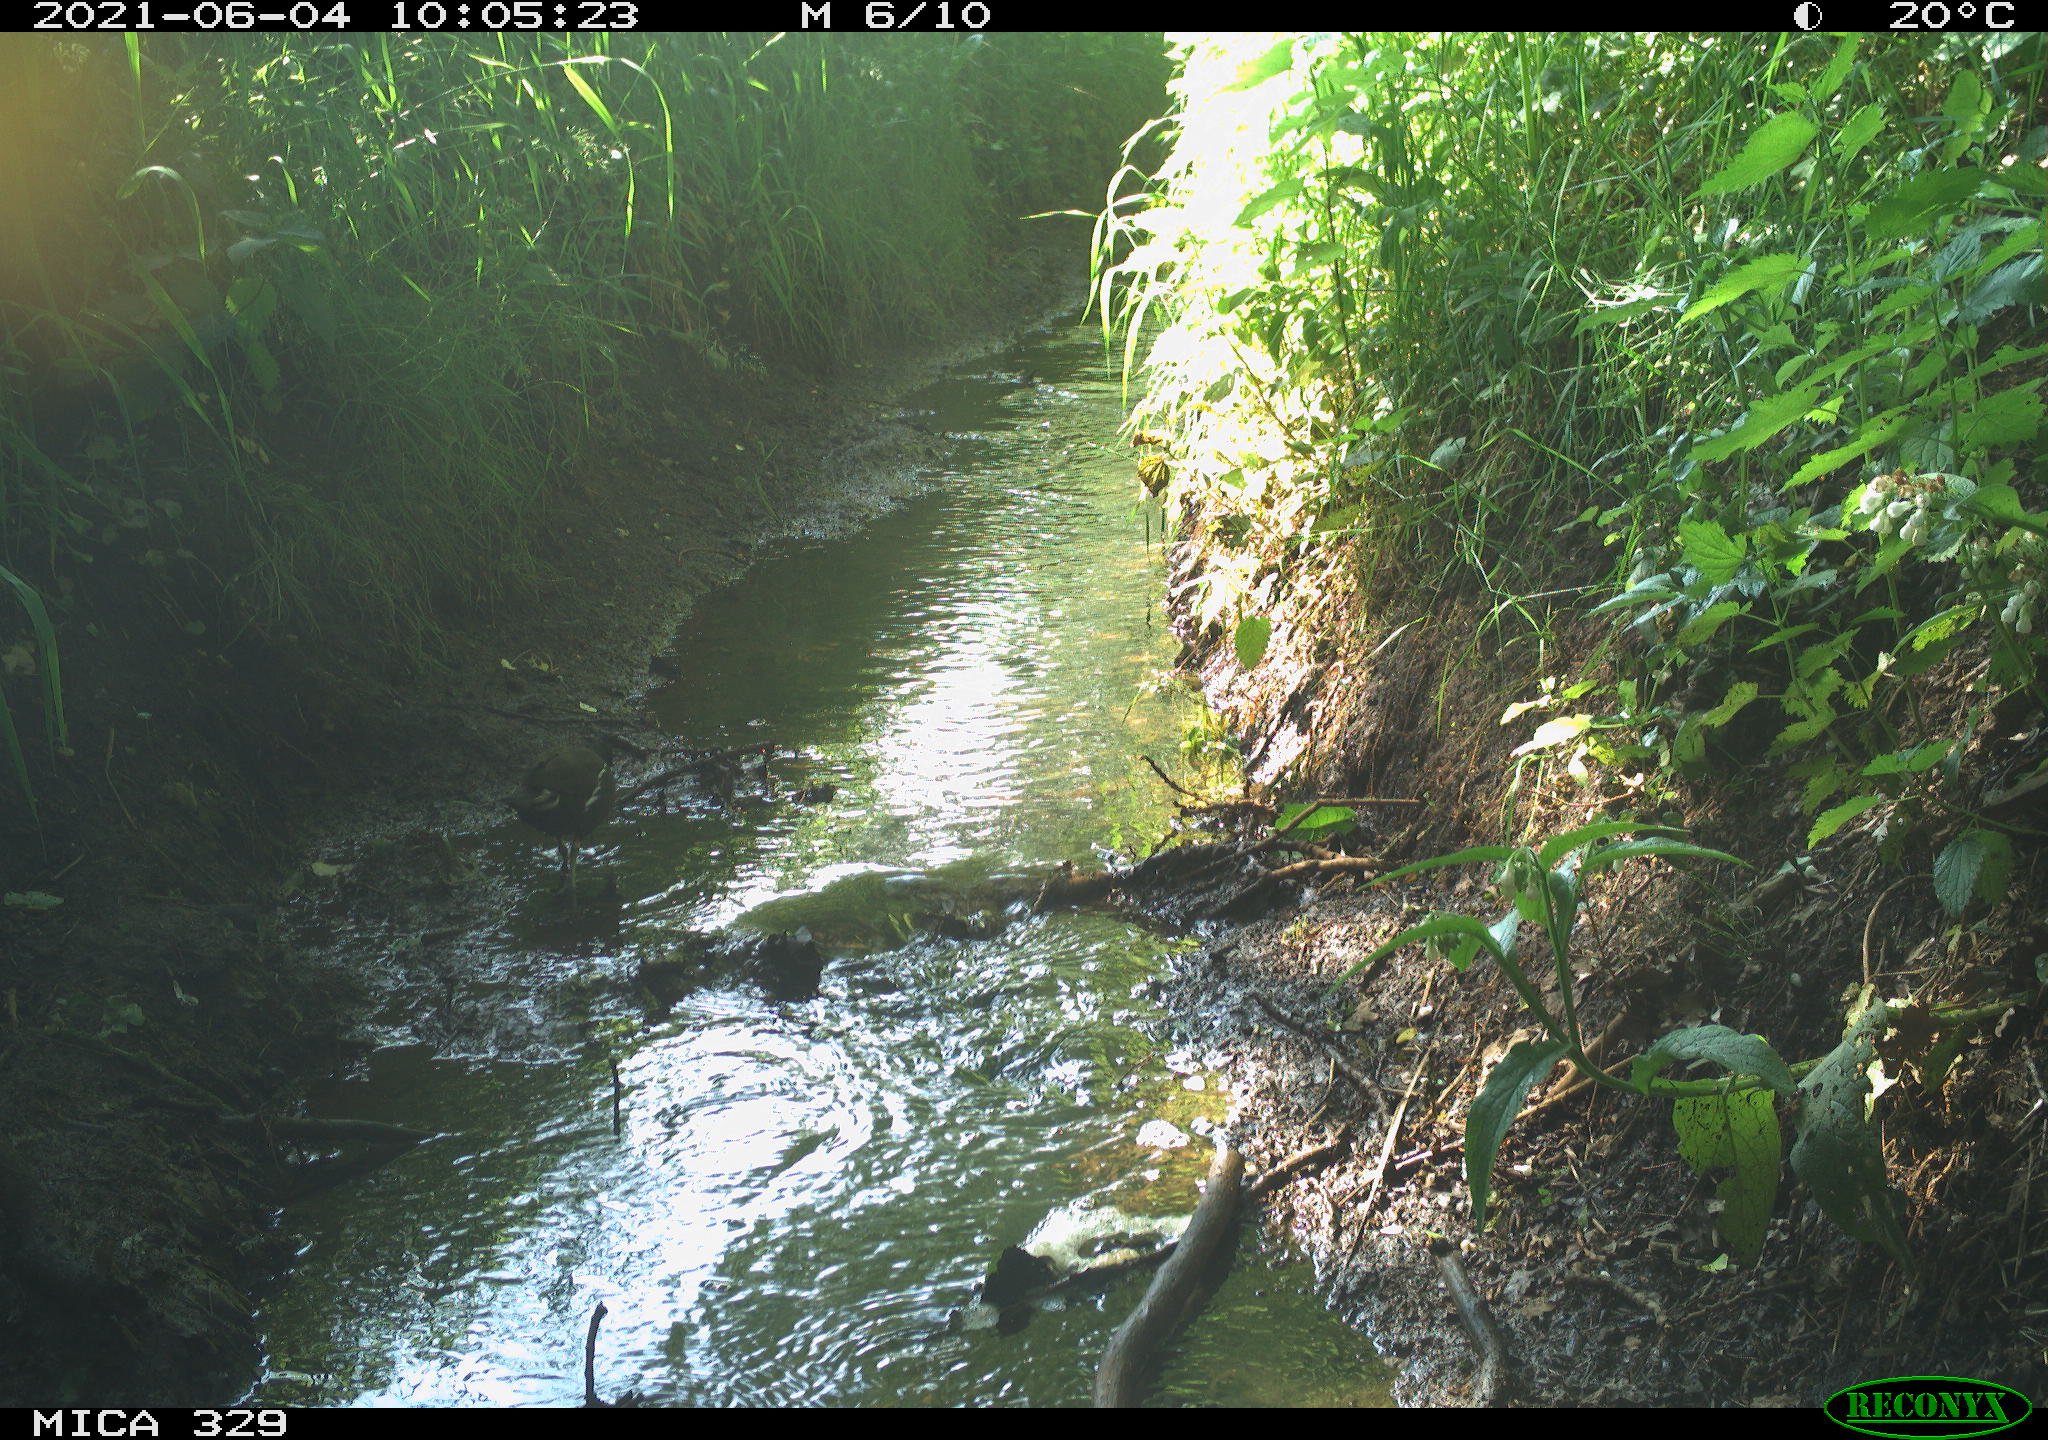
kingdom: Animalia
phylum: Chordata
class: Aves
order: Gruiformes
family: Rallidae
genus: Gallinula
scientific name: Gallinula chloropus
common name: Common moorhen
